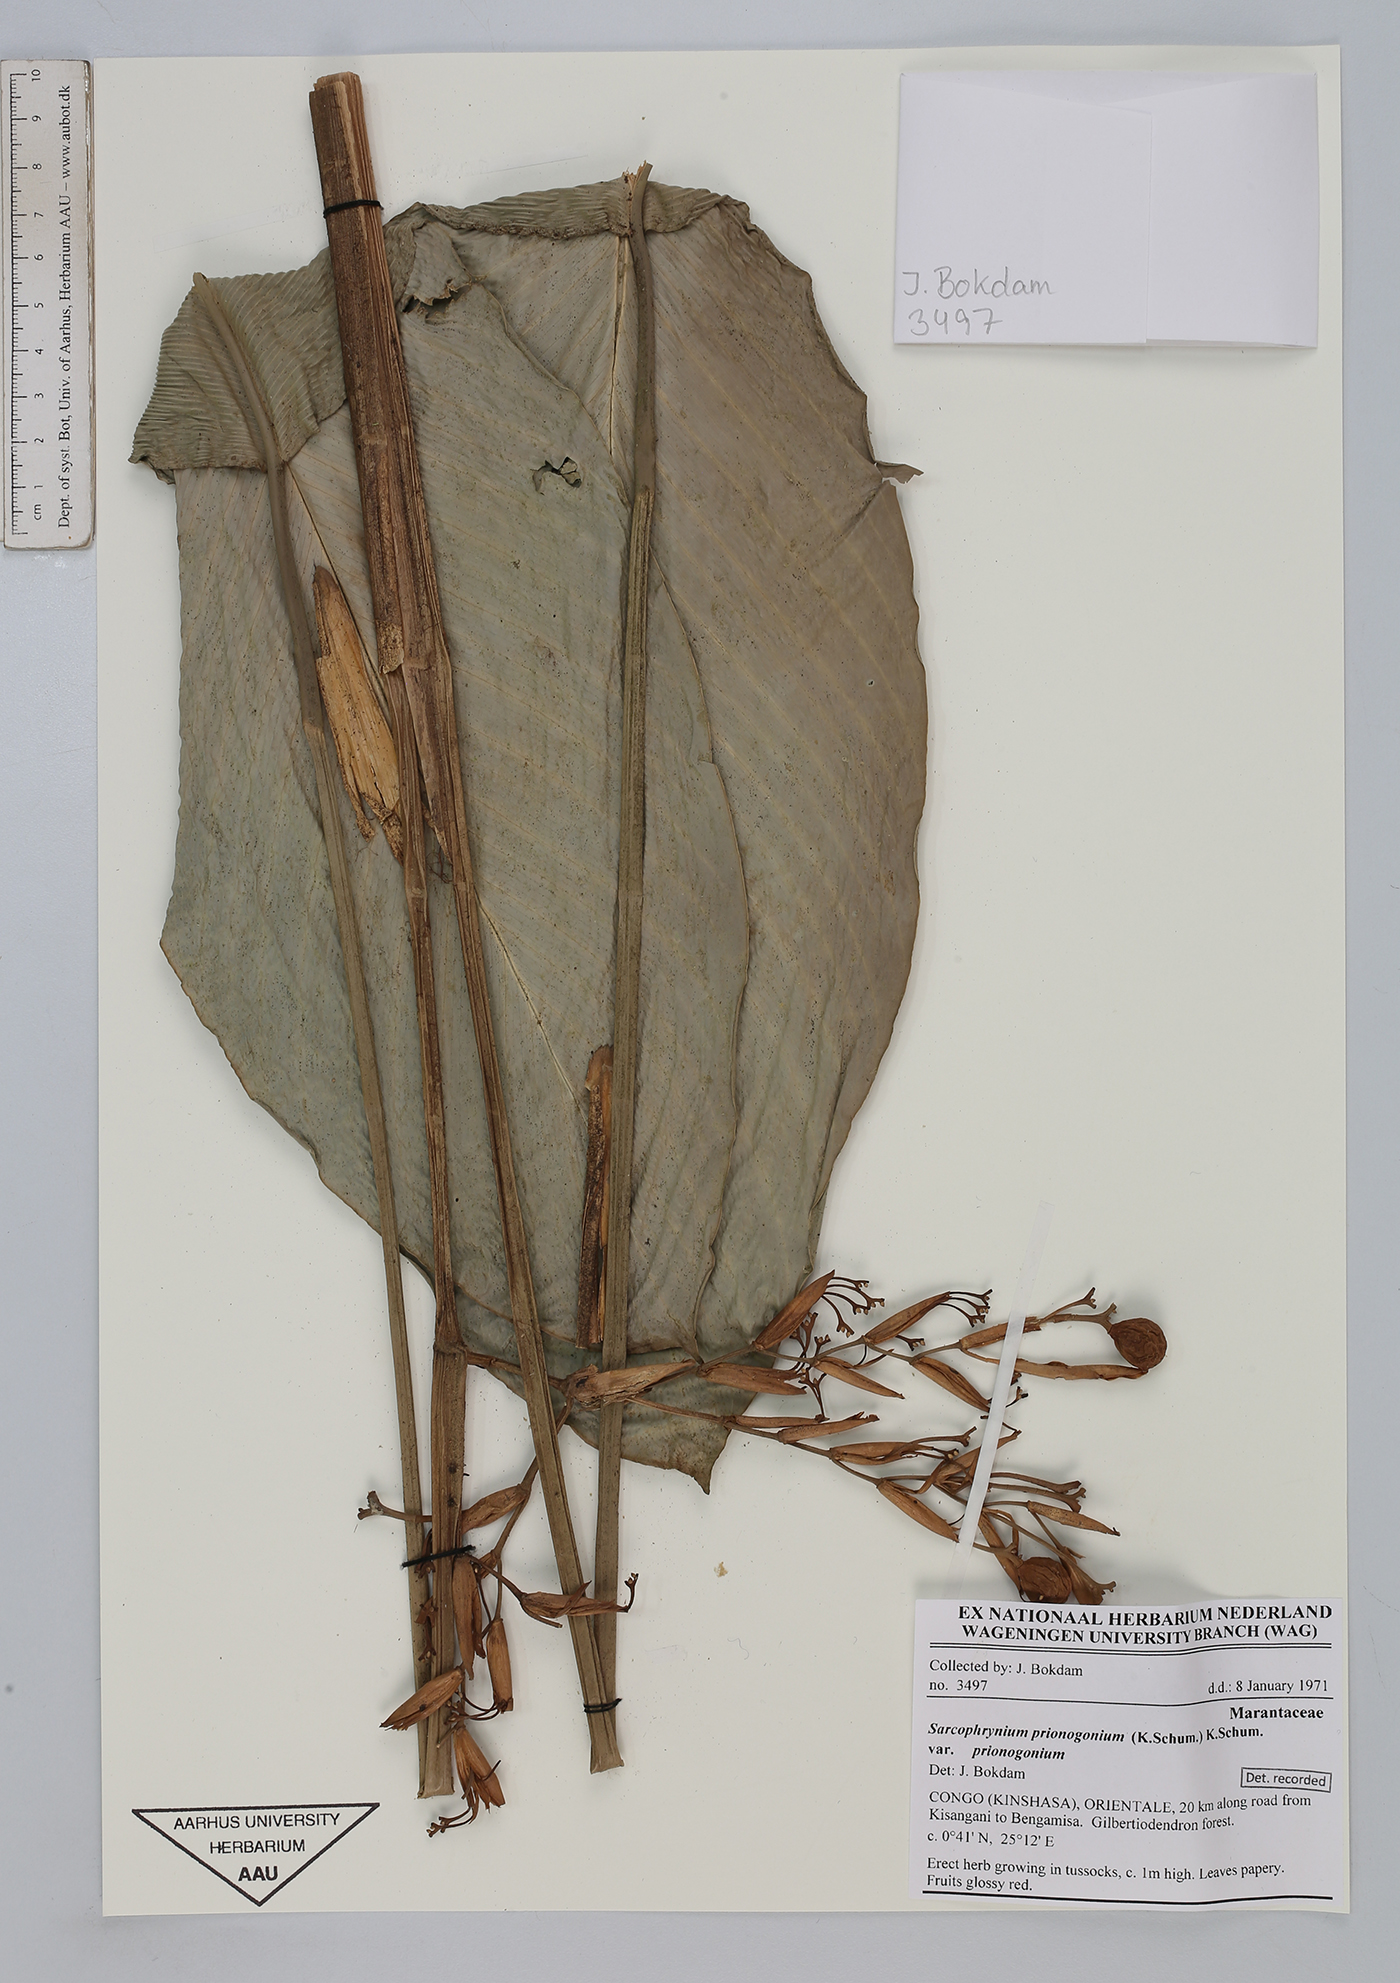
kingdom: Plantae
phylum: Tracheophyta
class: Liliopsida
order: Zingiberales
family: Marantaceae
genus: Sarcophrynium
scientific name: Sarcophrynium prionogonium
